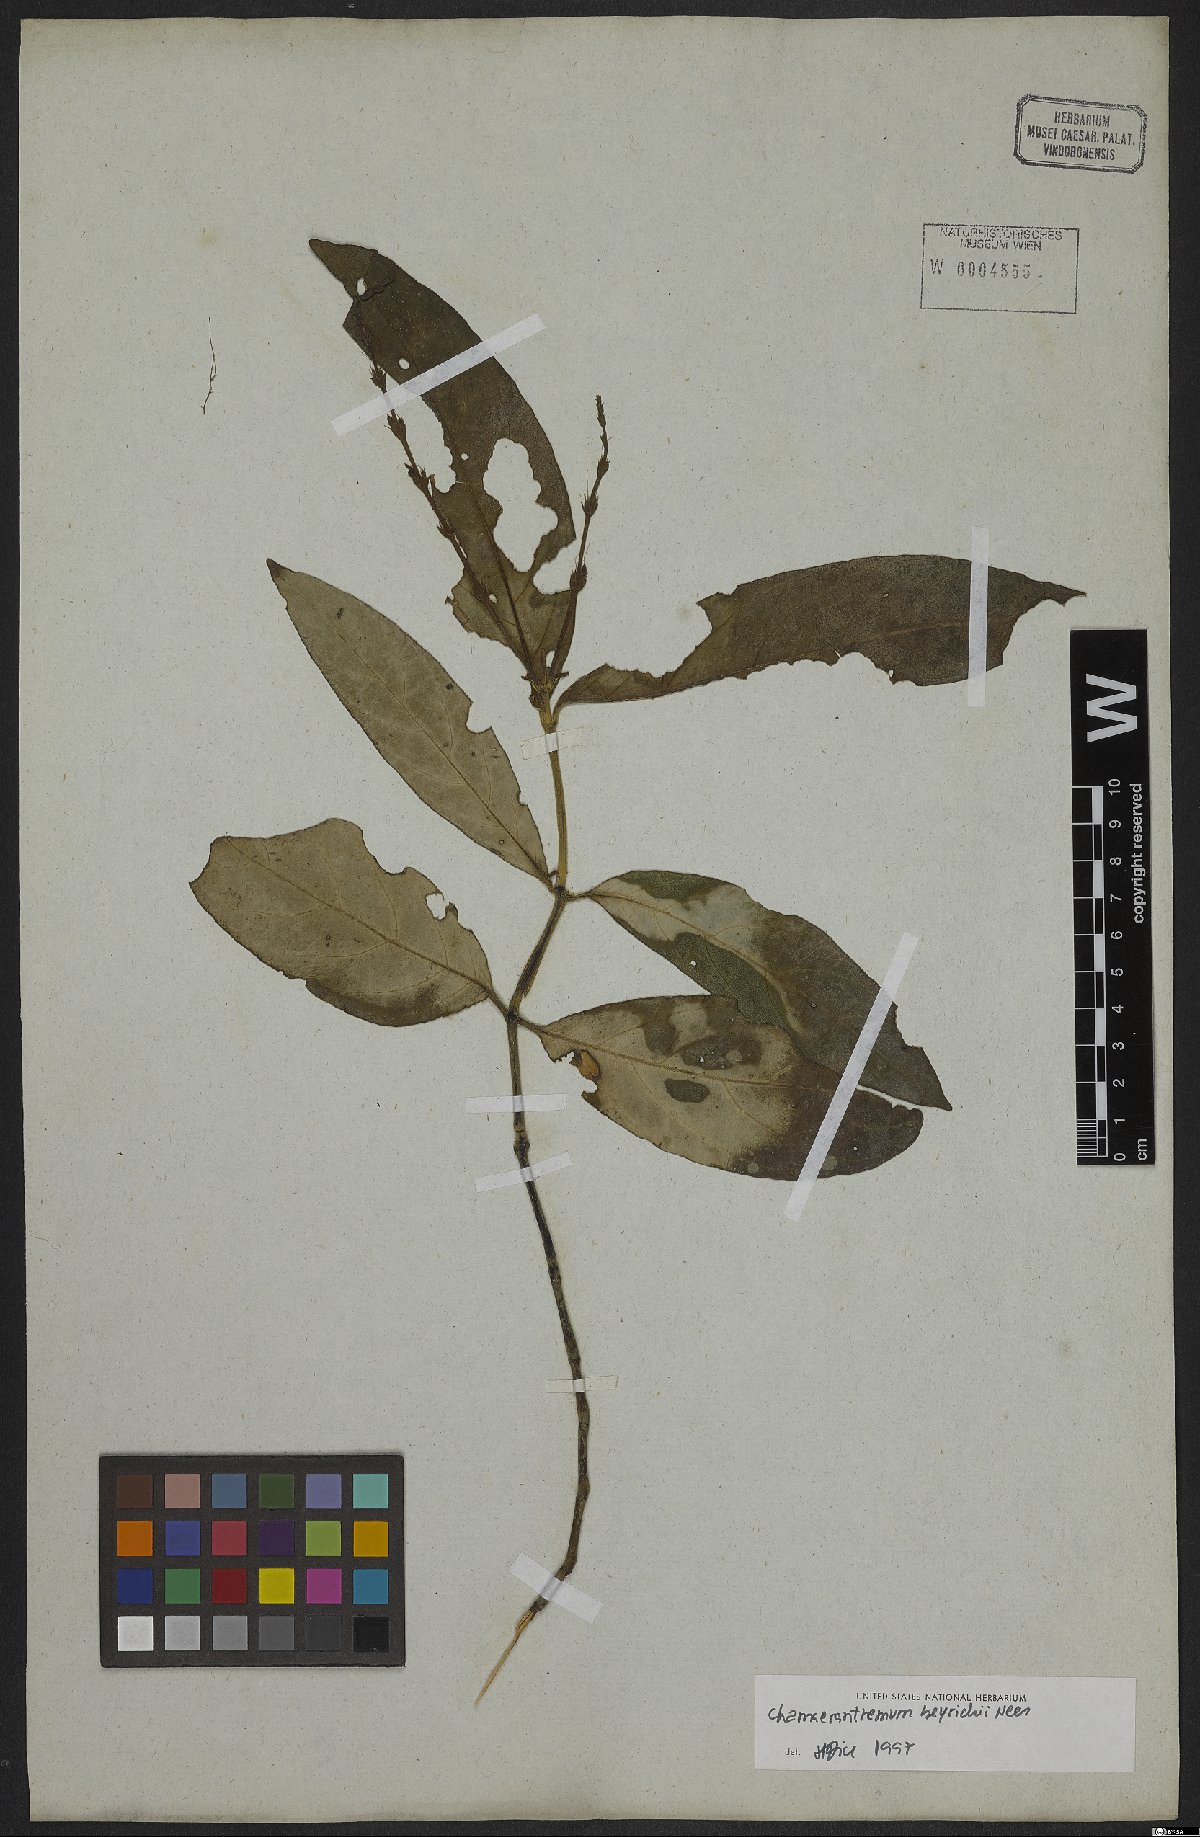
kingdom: Plantae
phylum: Tracheophyta
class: Magnoliopsida
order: Lamiales
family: Acanthaceae
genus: Chamaeranthemum
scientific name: Chamaeranthemum beyrichii
